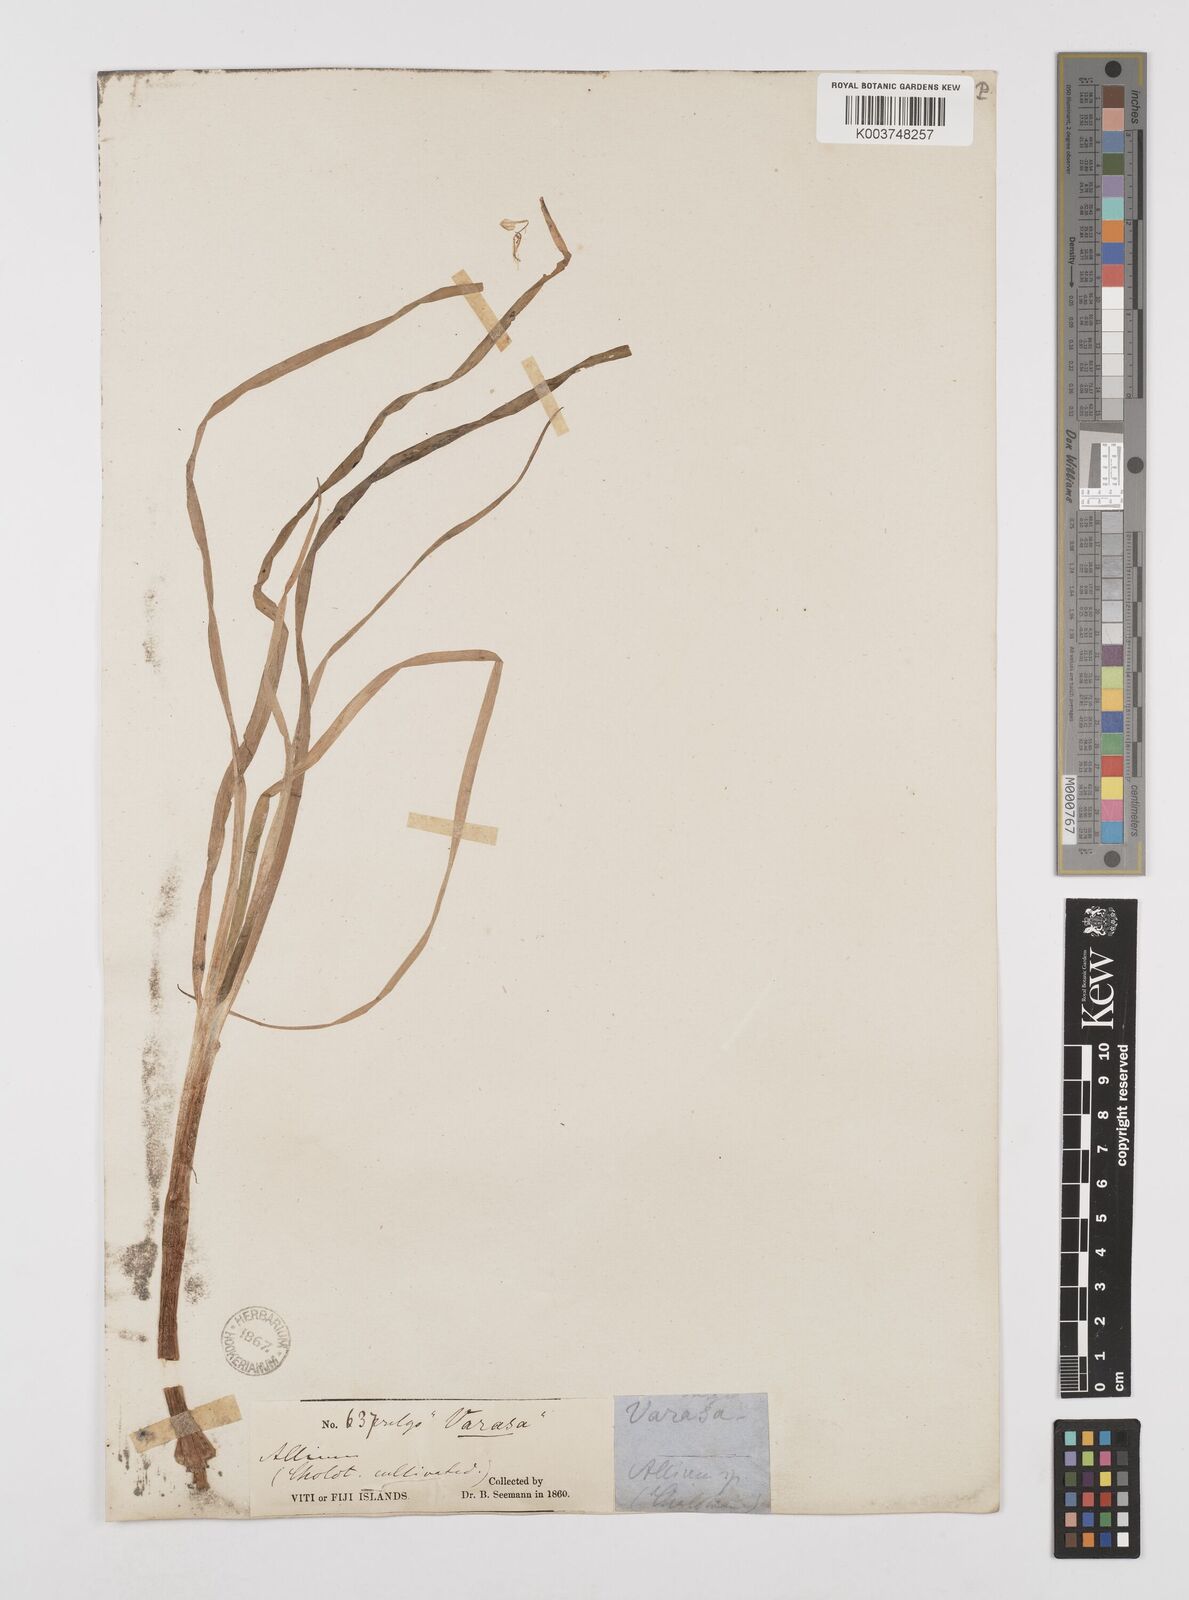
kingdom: Plantae
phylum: Tracheophyta
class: Liliopsida
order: Asparagales
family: Amaryllidaceae
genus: Allium
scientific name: Allium ascalonicum
